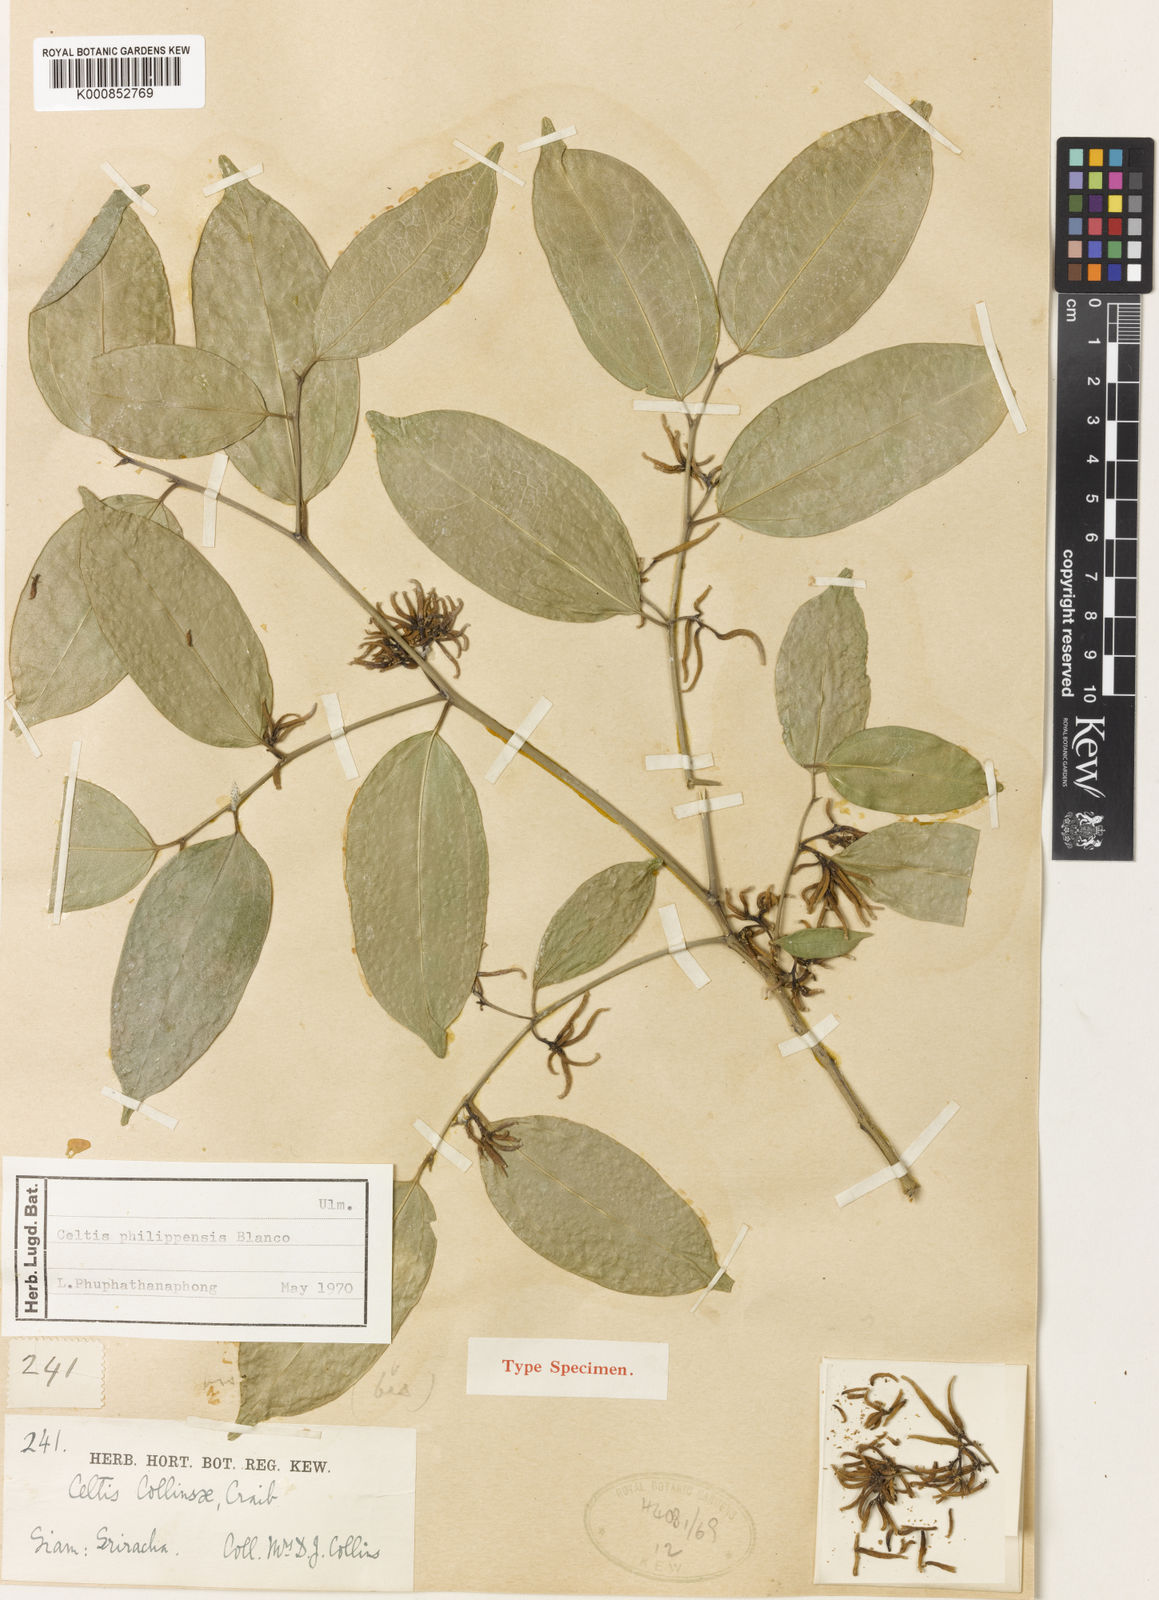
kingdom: Plantae
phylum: Tracheophyta
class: Magnoliopsida
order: Rosales
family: Cannabaceae
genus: Celtis
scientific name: Celtis philippensis
